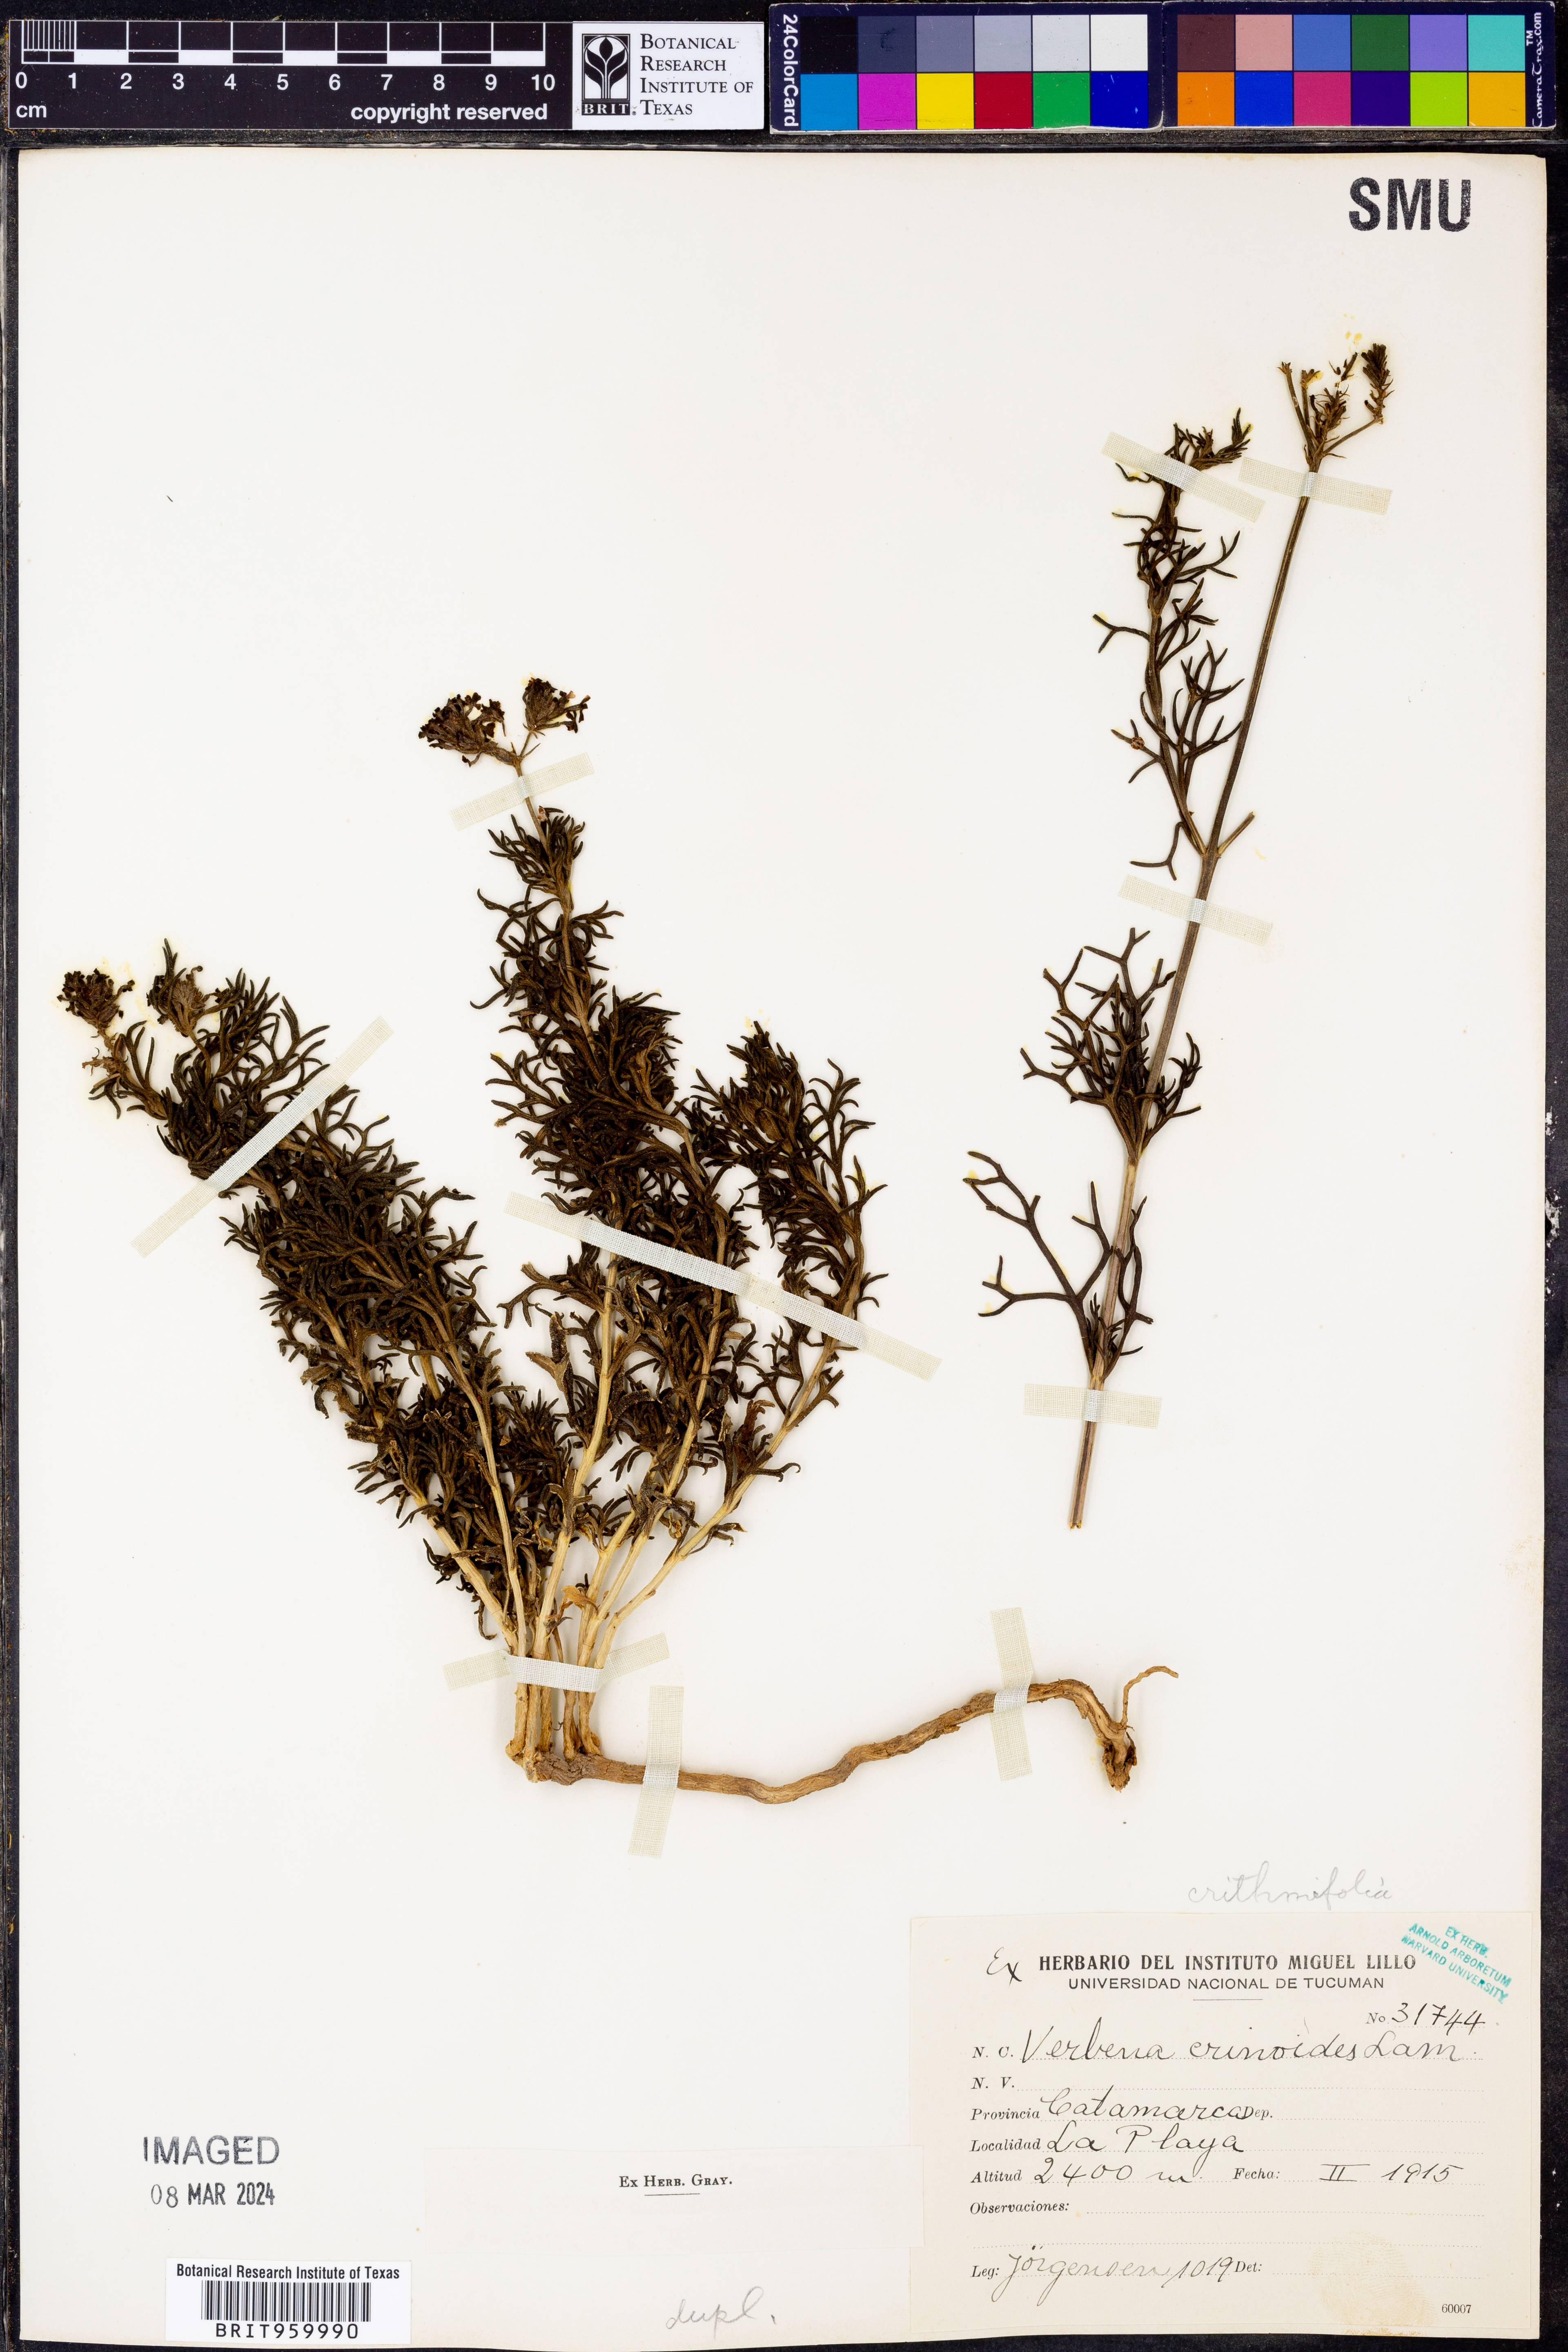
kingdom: Plantae
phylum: Tracheophyta
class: Magnoliopsida
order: Lamiales
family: Verbenaceae
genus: Verbena
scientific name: Verbena
